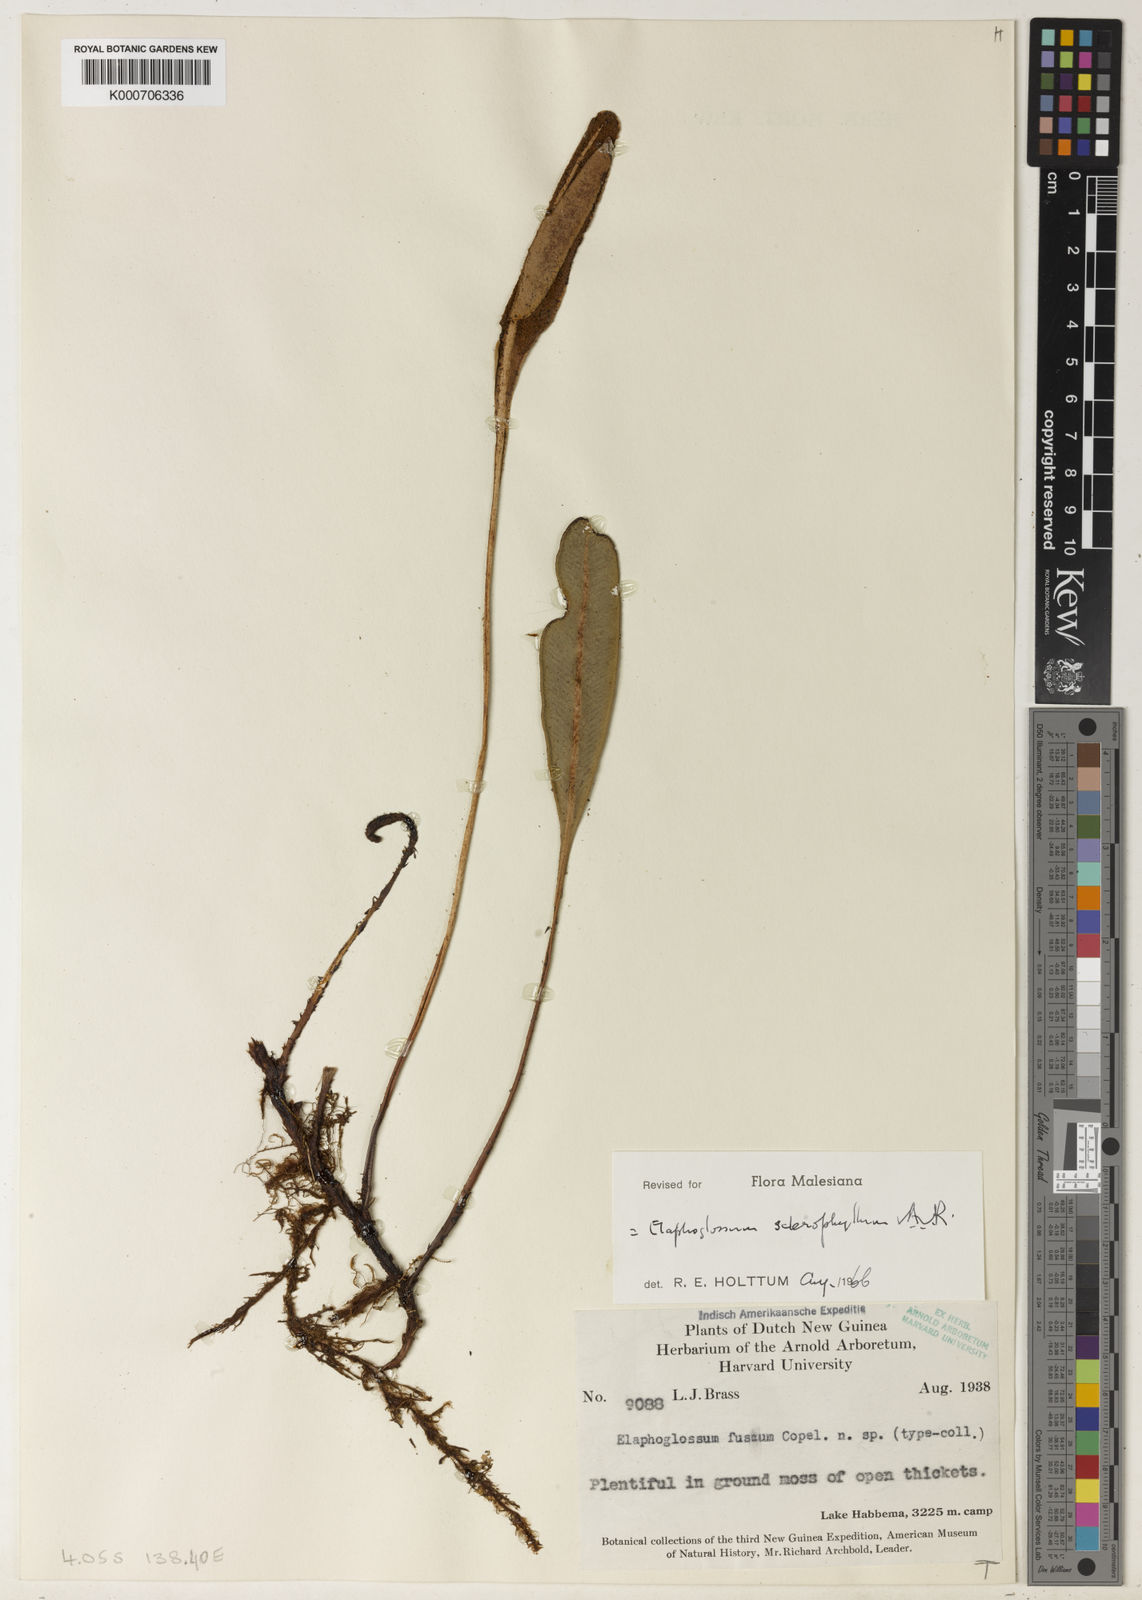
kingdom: Plantae
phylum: Tracheophyta
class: Polypodiopsida
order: Polypodiales
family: Dryopteridaceae
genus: Elaphoglossum
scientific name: Elaphoglossum sclerophyllum
